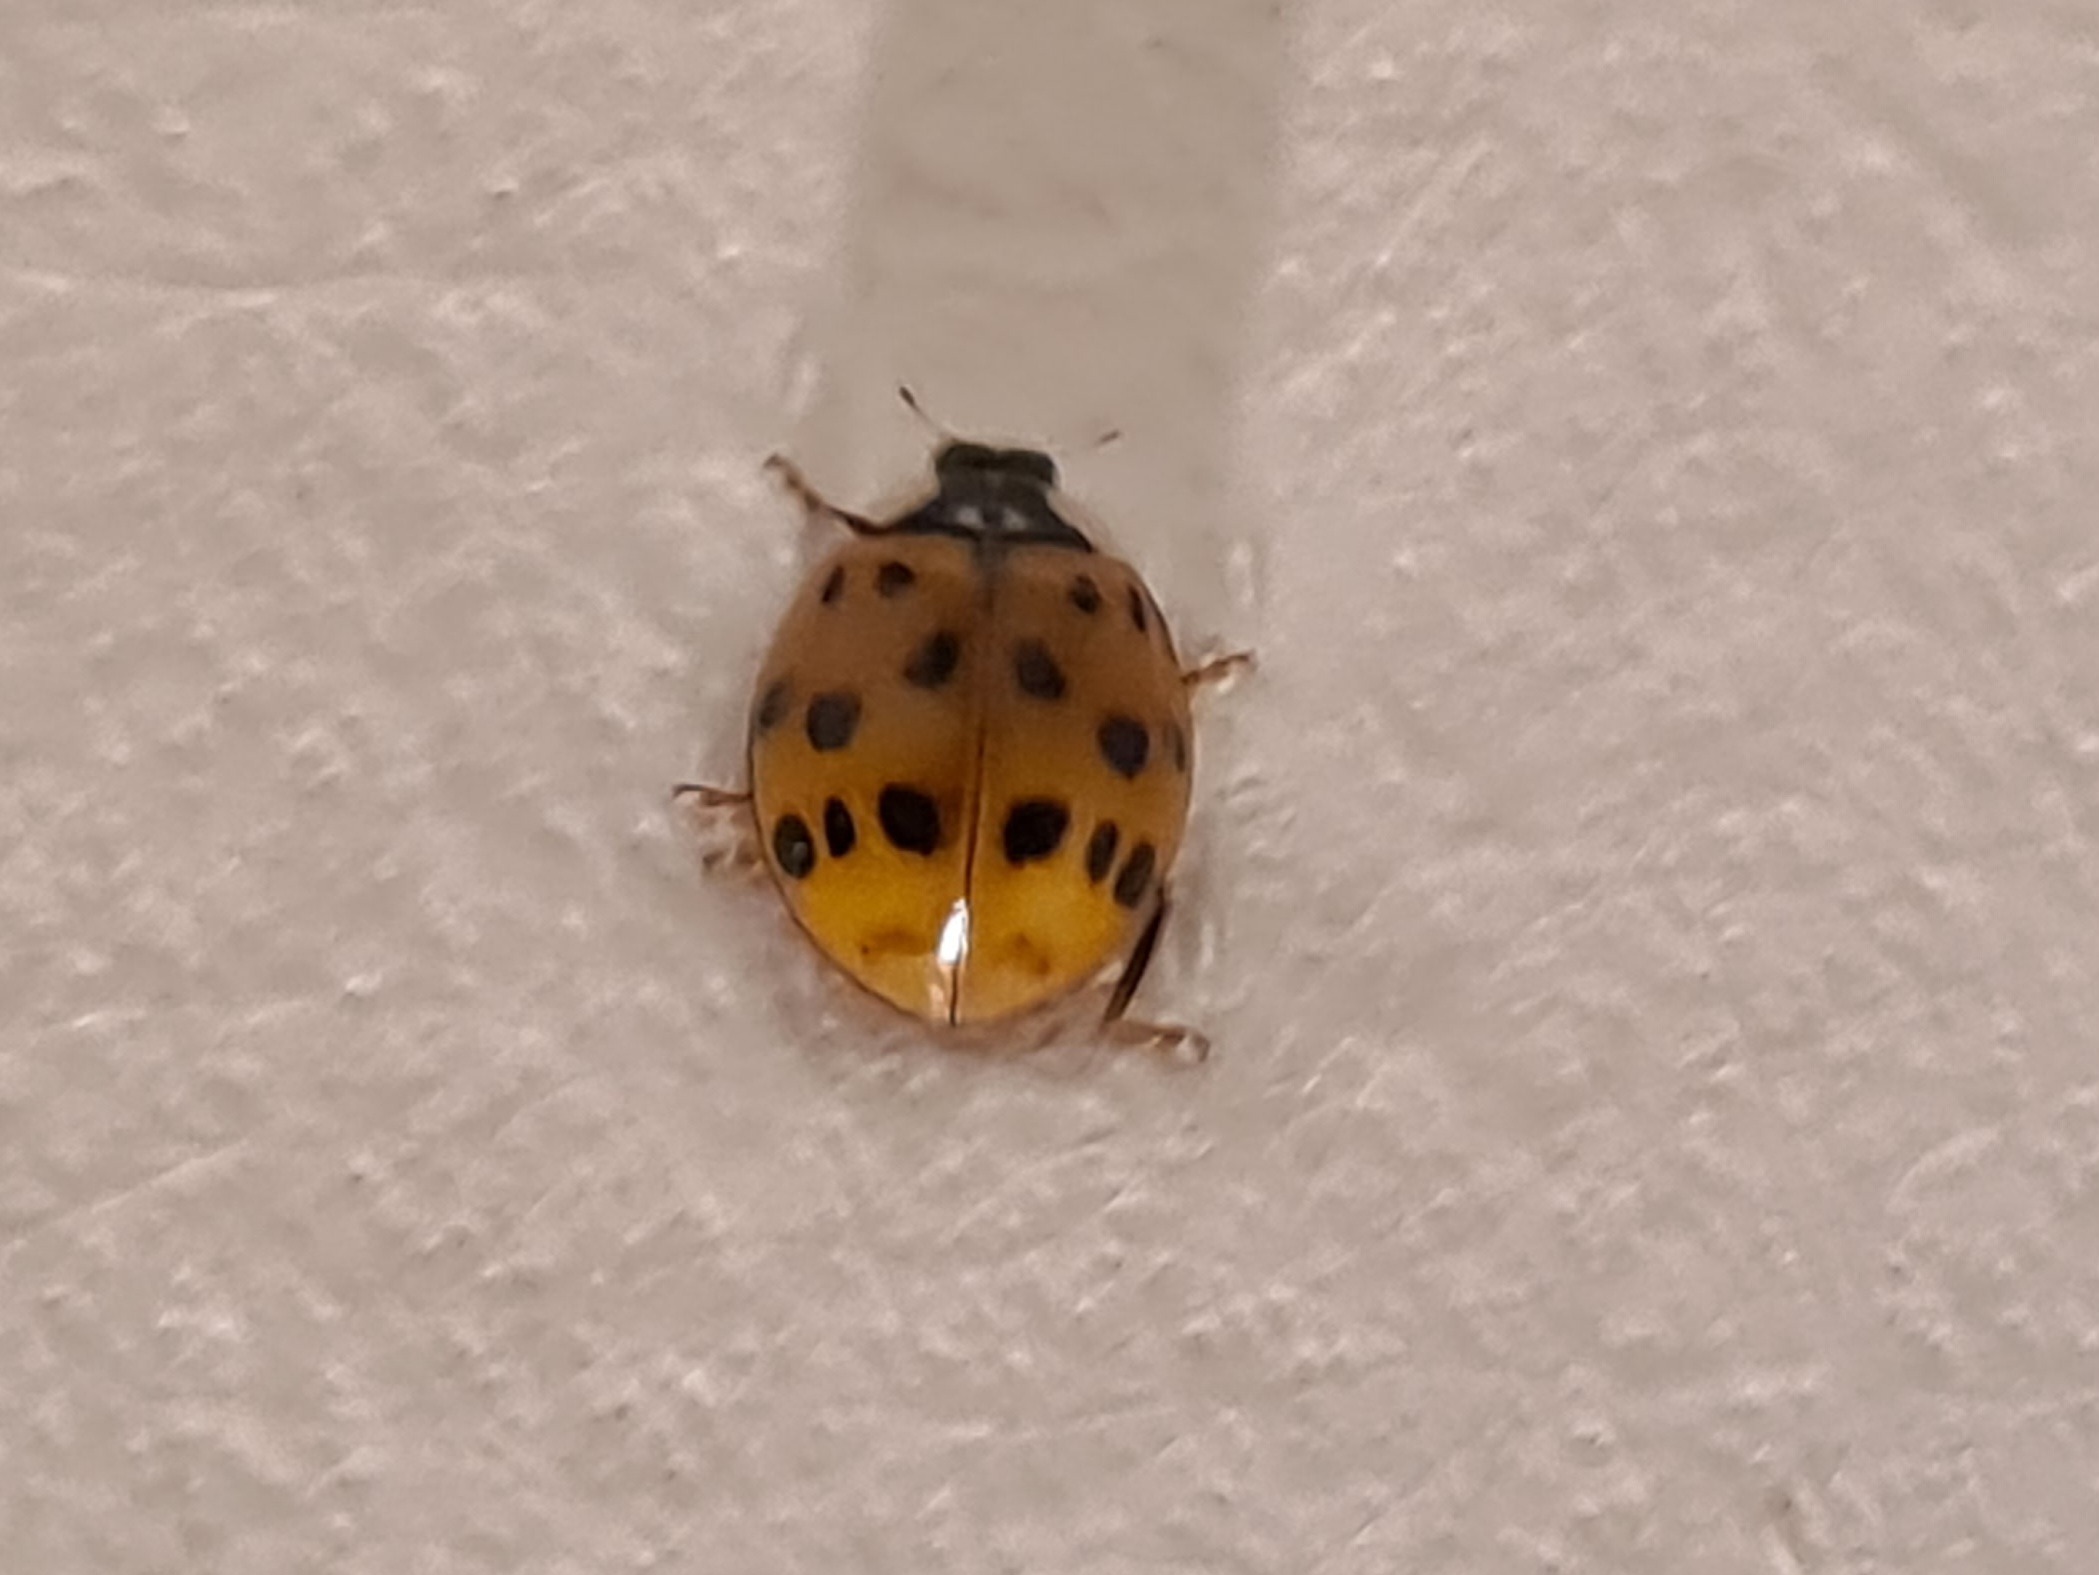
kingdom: Animalia
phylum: Arthropoda
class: Insecta
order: Coleoptera
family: Coccinellidae
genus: Harmonia
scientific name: Harmonia axyridis
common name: Harlekinmariehøne
